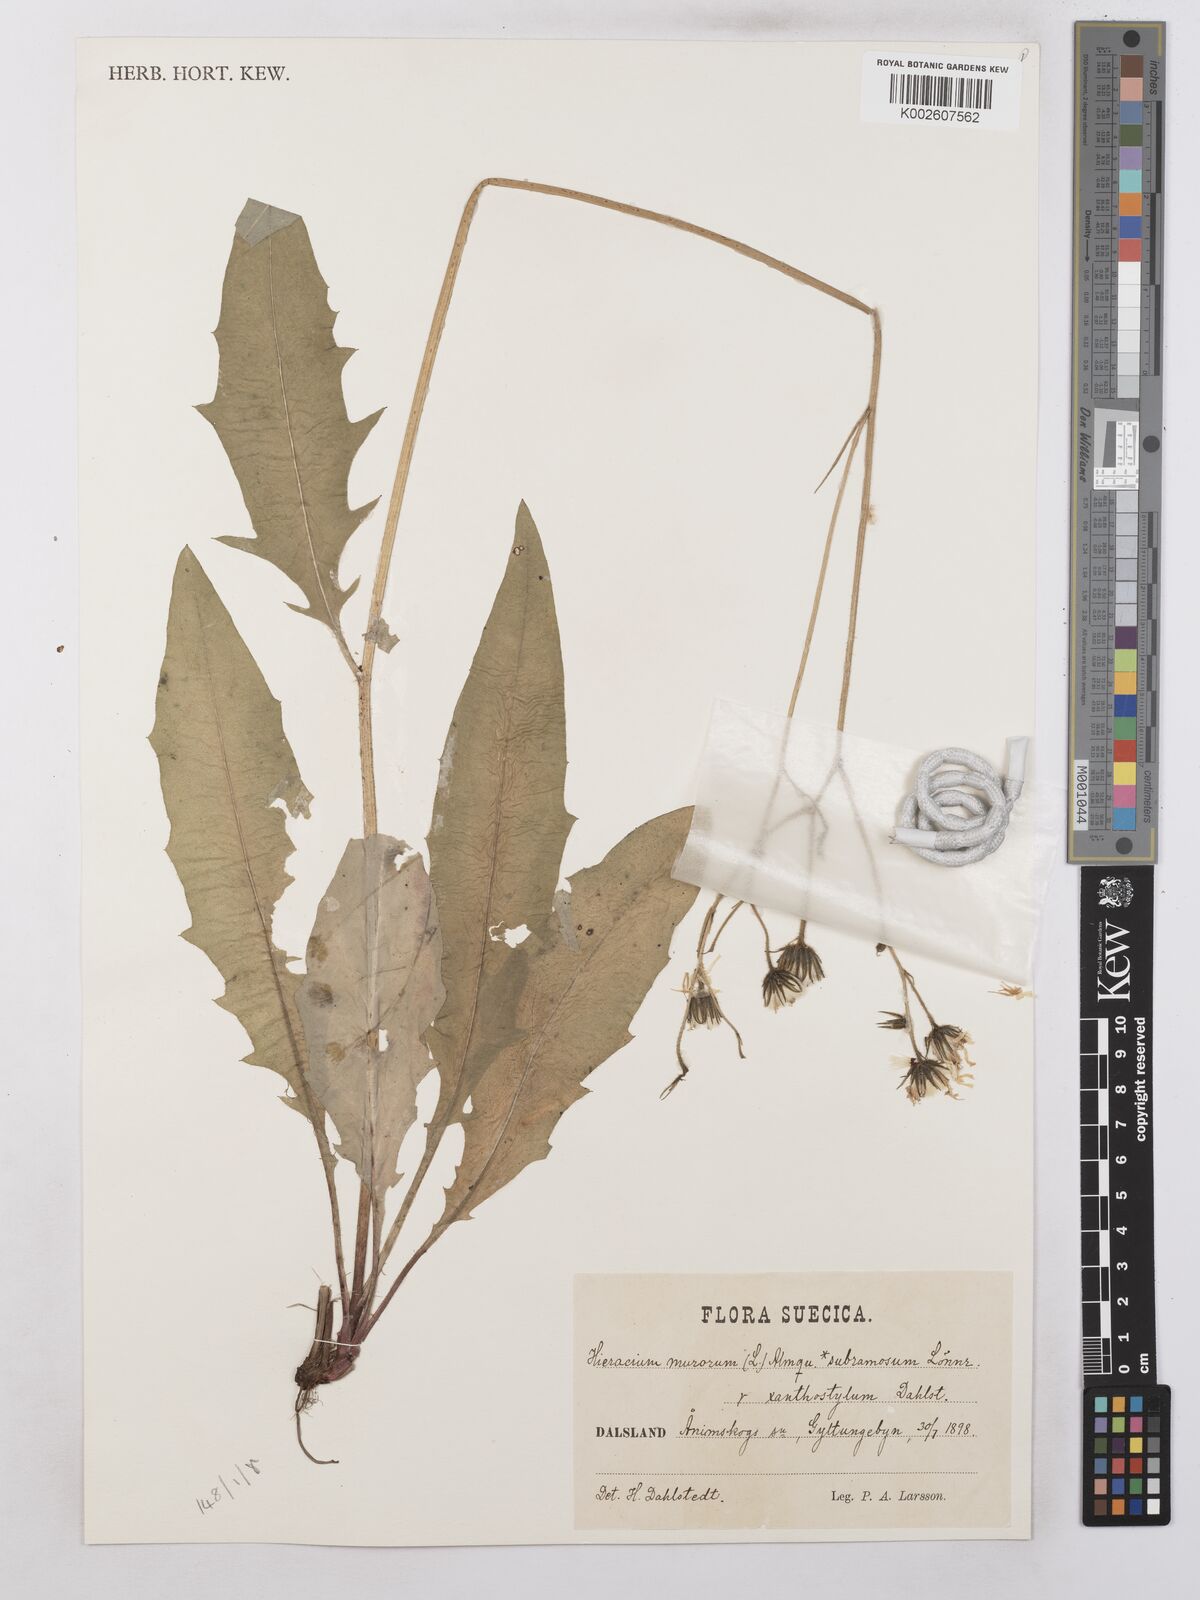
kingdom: Plantae
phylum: Tracheophyta
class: Magnoliopsida
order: Asterales
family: Asteraceae
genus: Hieracium
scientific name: Hieracium subramosum
